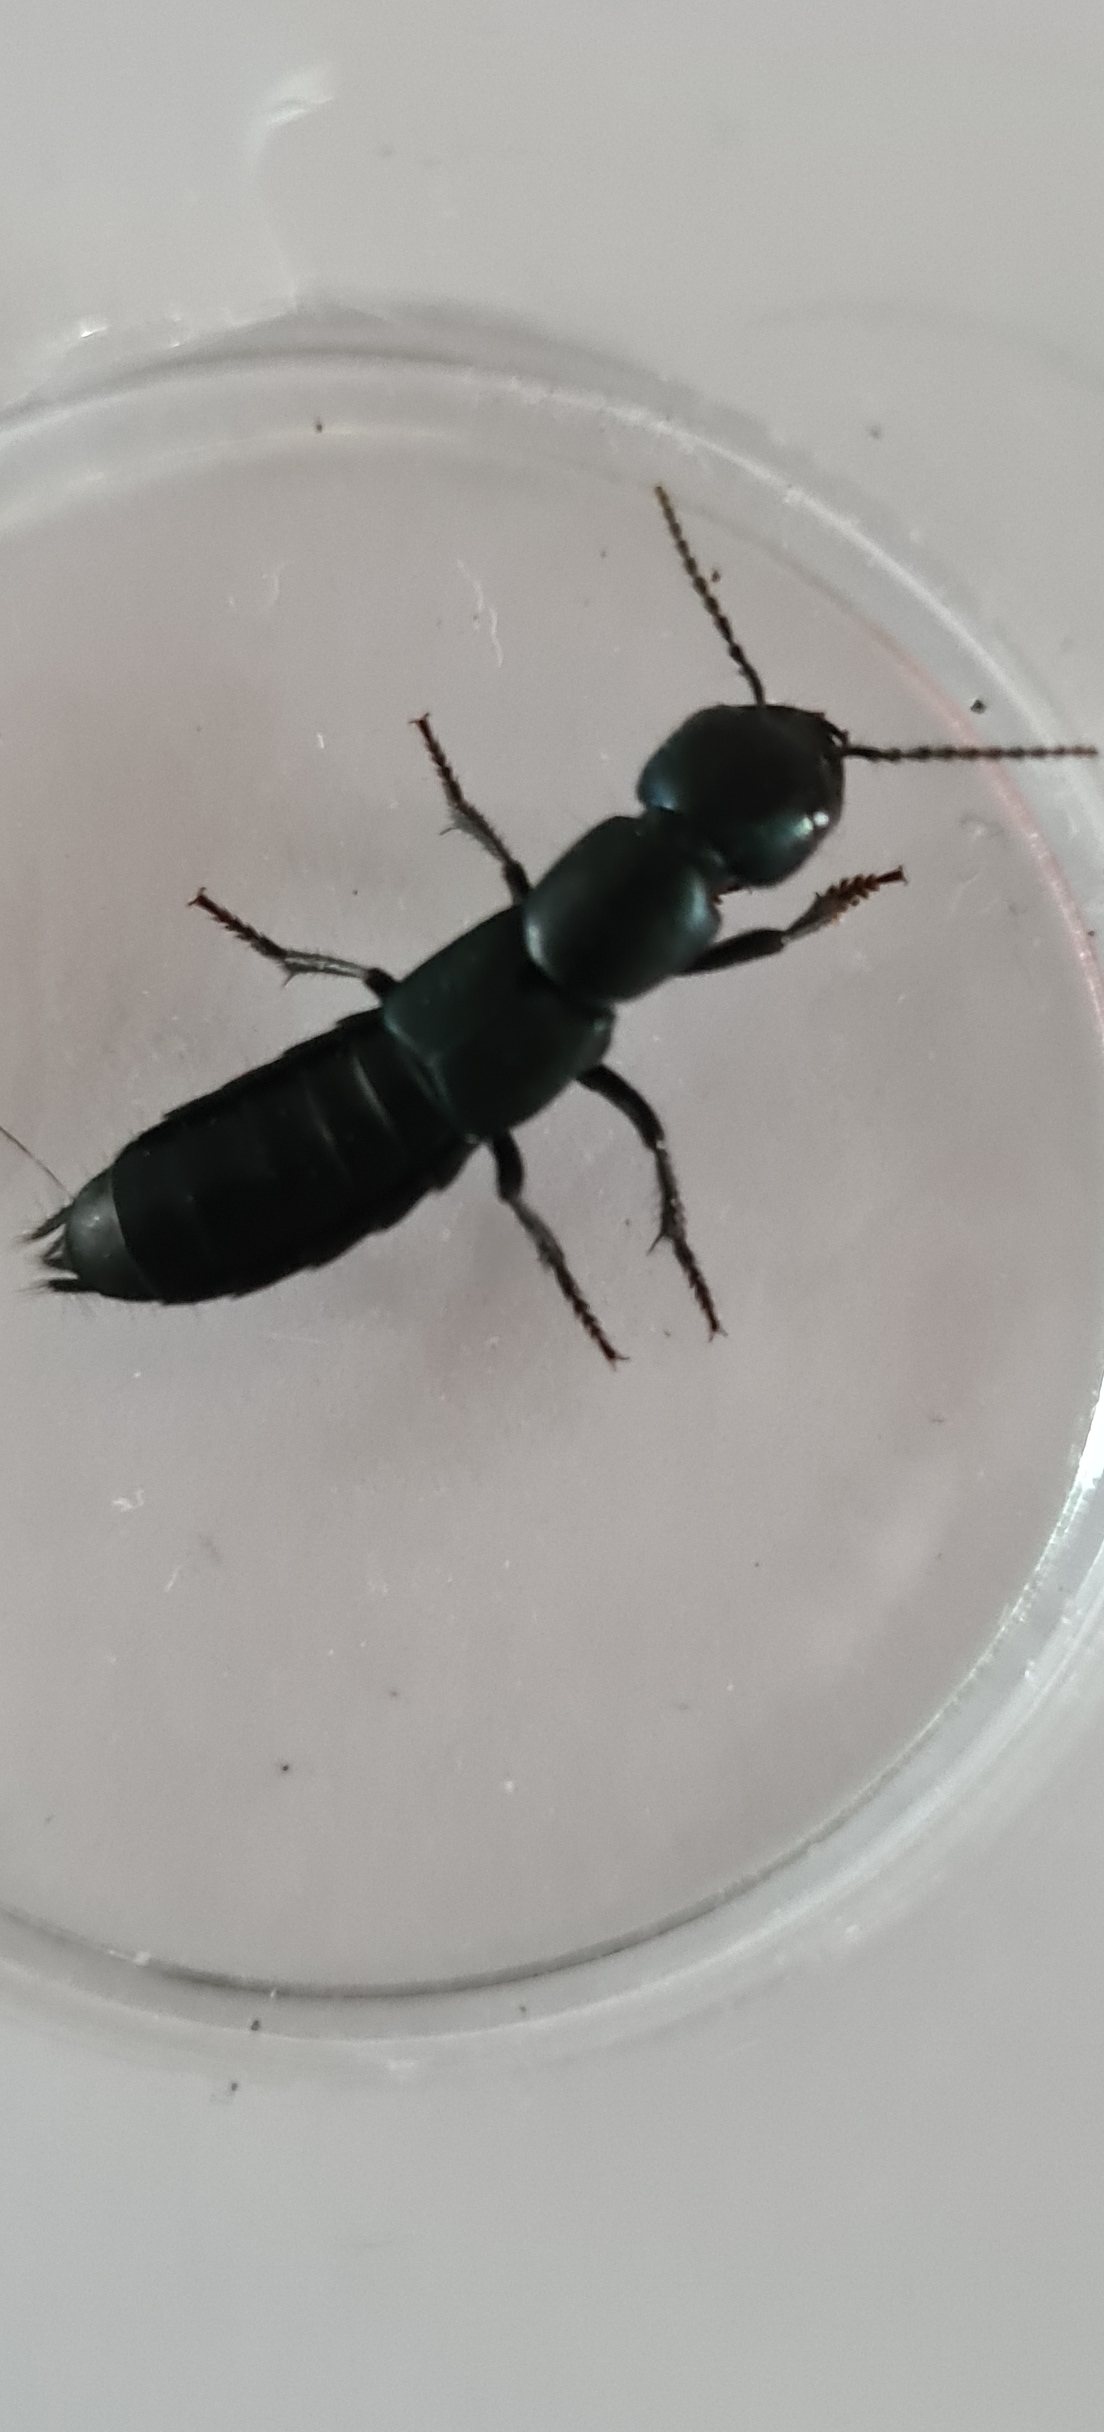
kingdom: Animalia
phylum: Arthropoda
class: Insecta
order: Coleoptera
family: Staphylinidae
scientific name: Staphylinidae
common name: Rovbiller
